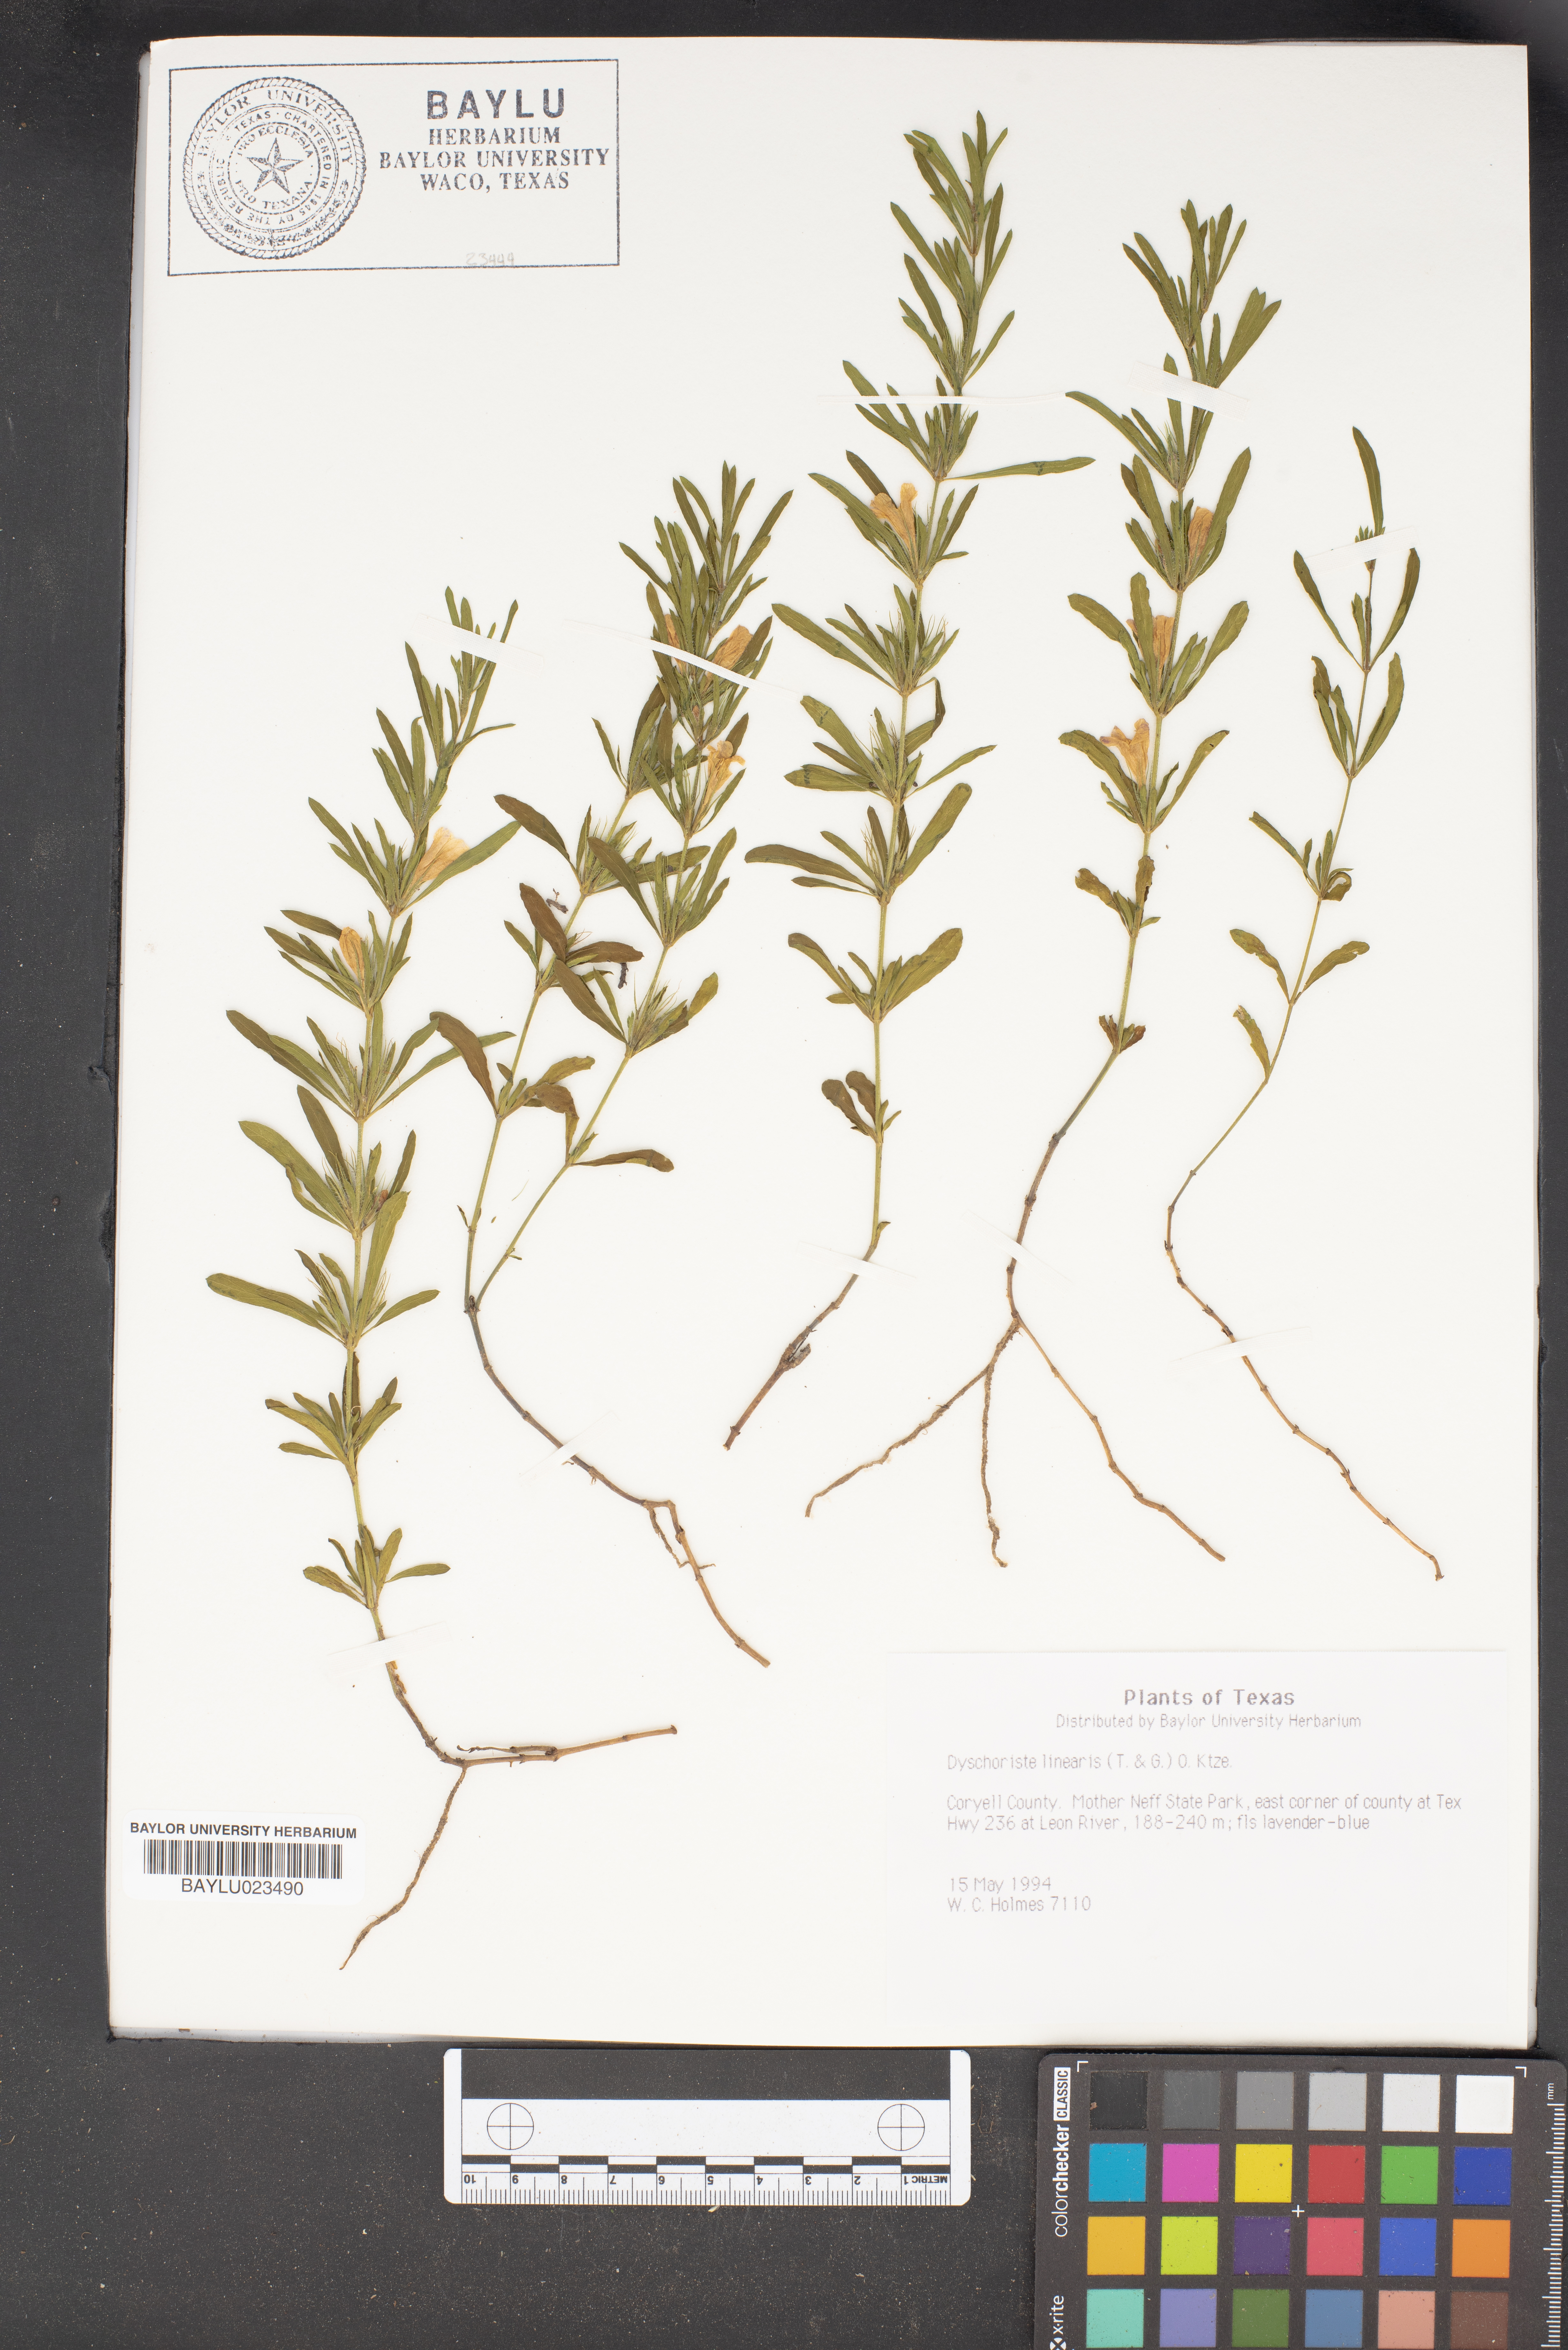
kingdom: Plantae
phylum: Tracheophyta
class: Magnoliopsida
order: Lamiales
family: Acanthaceae
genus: Dyschoriste
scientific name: Dyschoriste linearis
